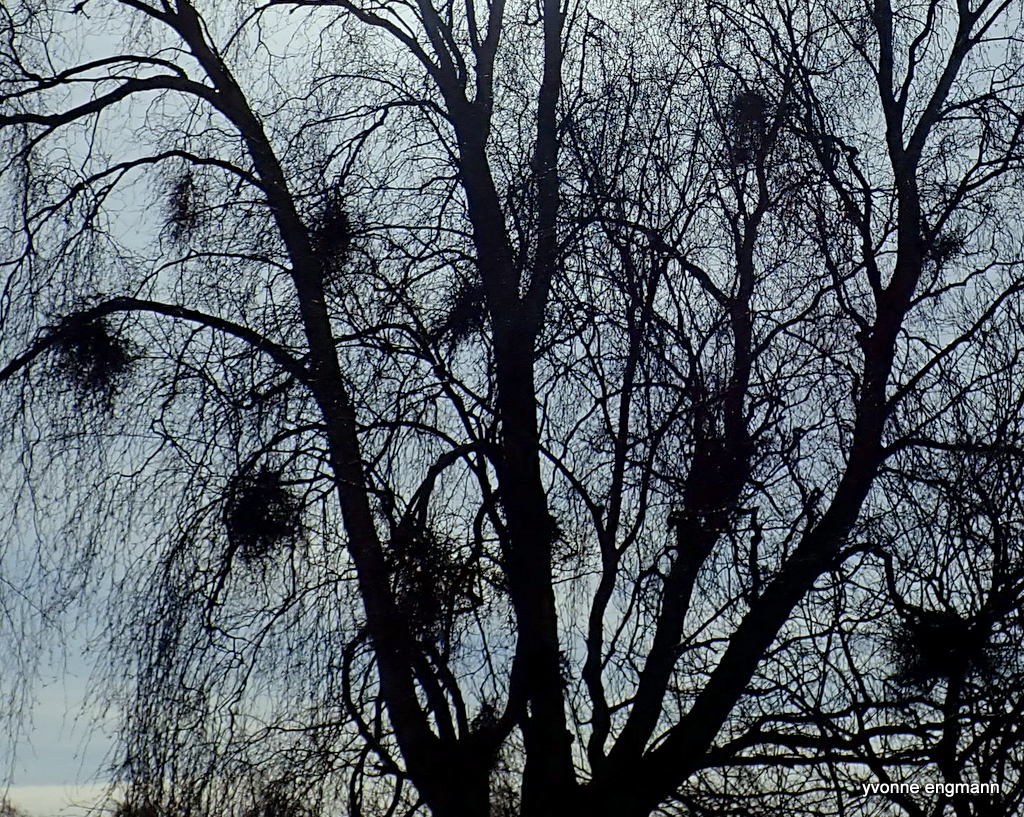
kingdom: Fungi
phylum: Ascomycota
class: Taphrinomycetes
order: Taphrinales
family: Taphrinaceae
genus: Taphrina
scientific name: Taphrina betulina
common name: hekse-sækdug
